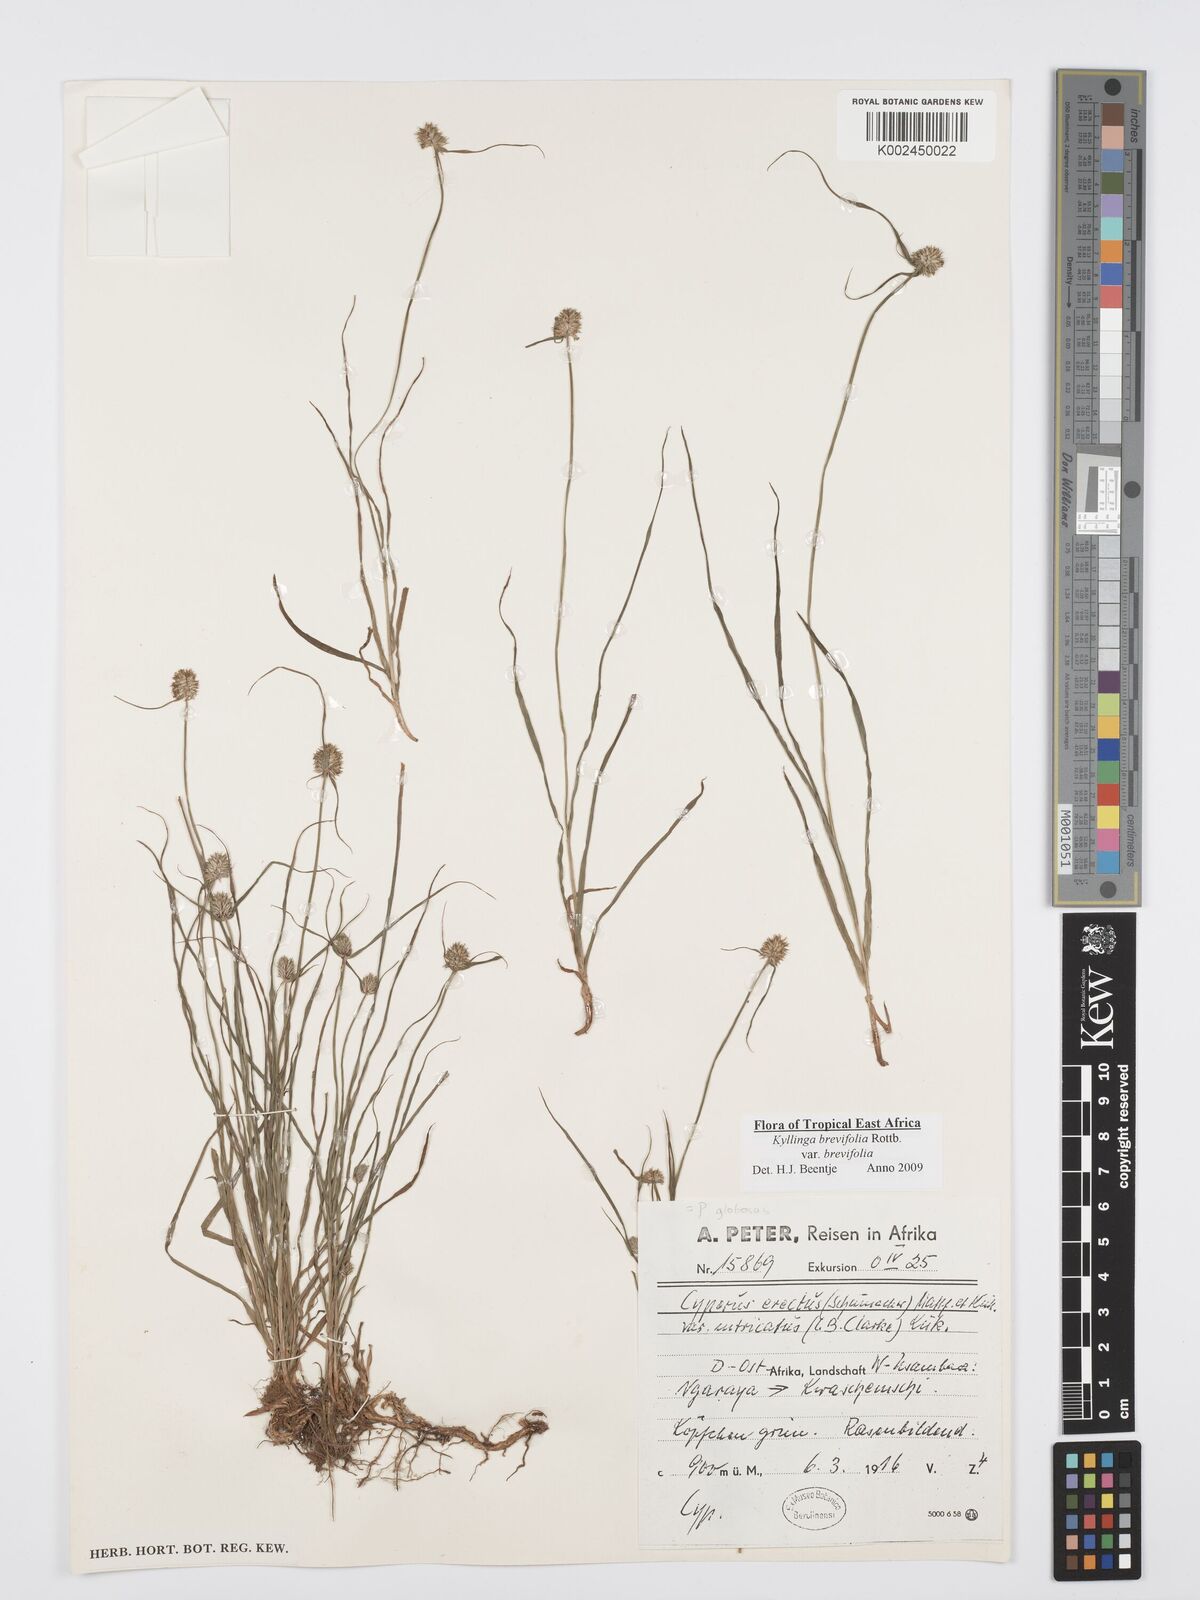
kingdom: Plantae
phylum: Tracheophyta
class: Liliopsida
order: Poales
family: Cyperaceae
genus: Cyperus
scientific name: Cyperus brevifolius
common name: Globe kyllinga
